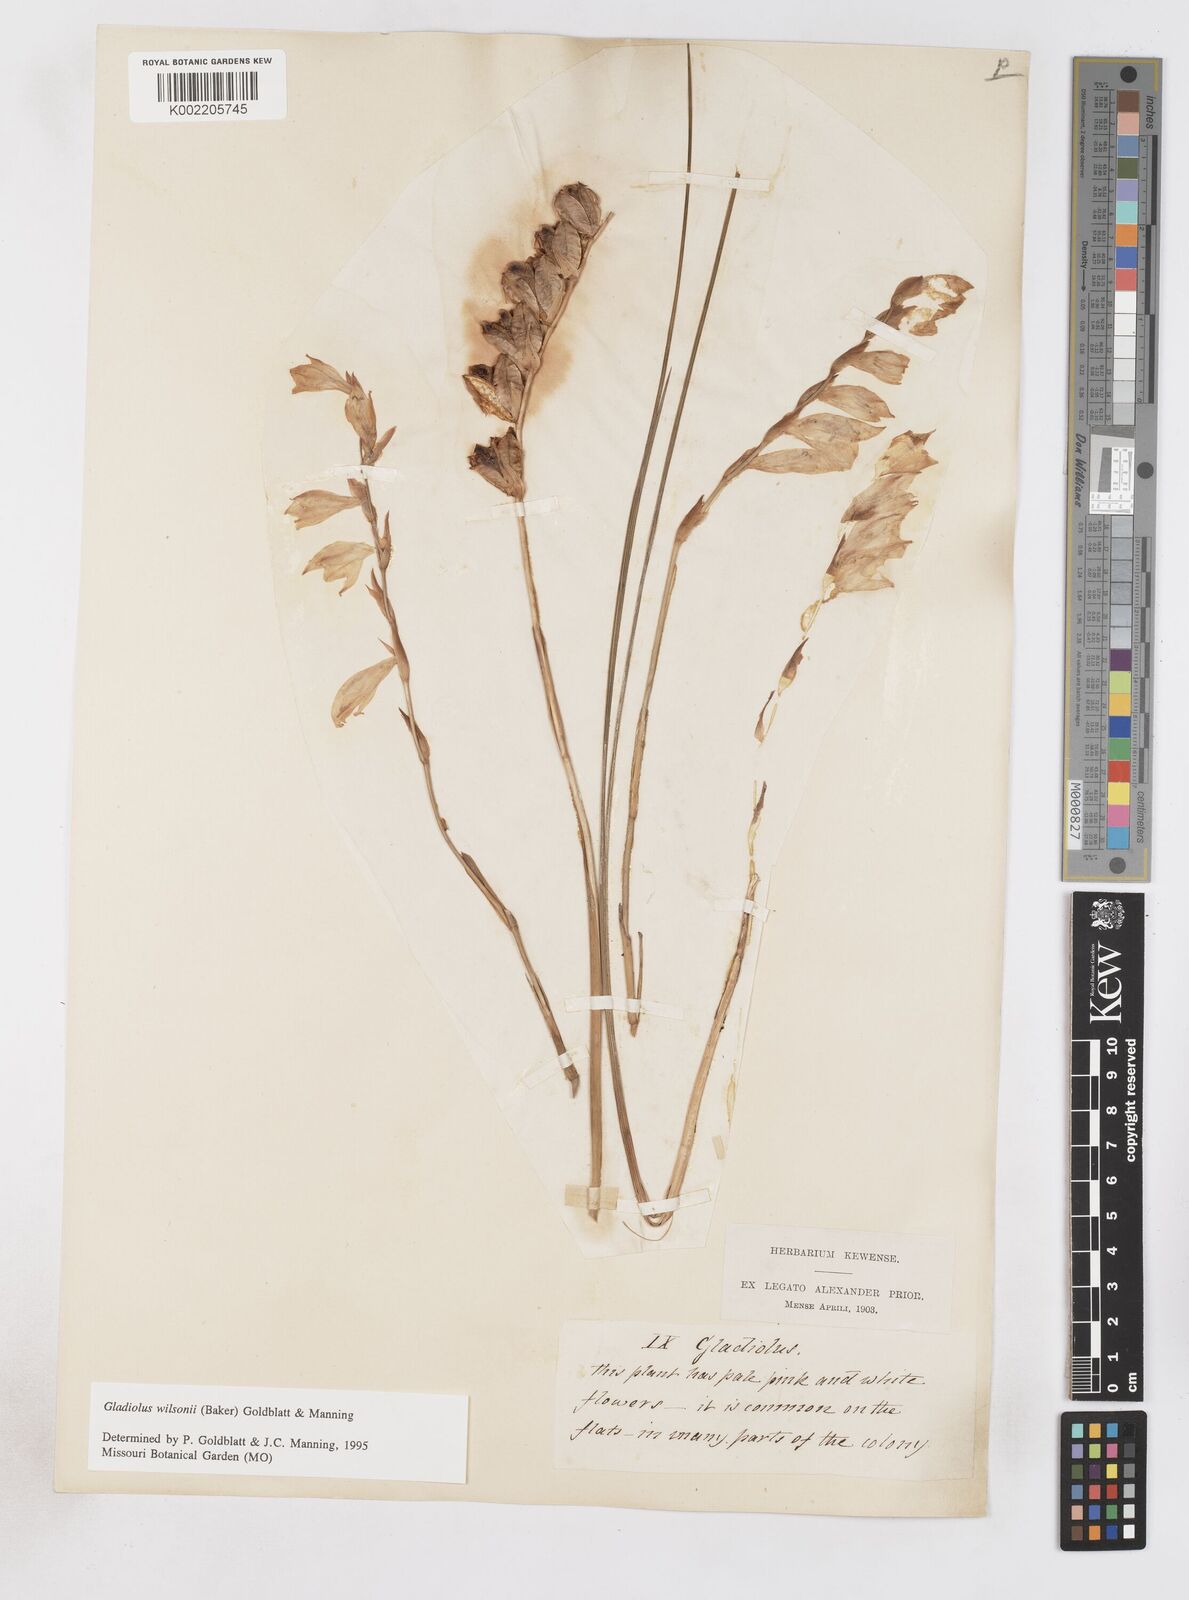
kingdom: Plantae
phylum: Tracheophyta
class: Liliopsida
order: Asparagales
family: Iridaceae
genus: Gladiolus
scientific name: Gladiolus wilsonii
